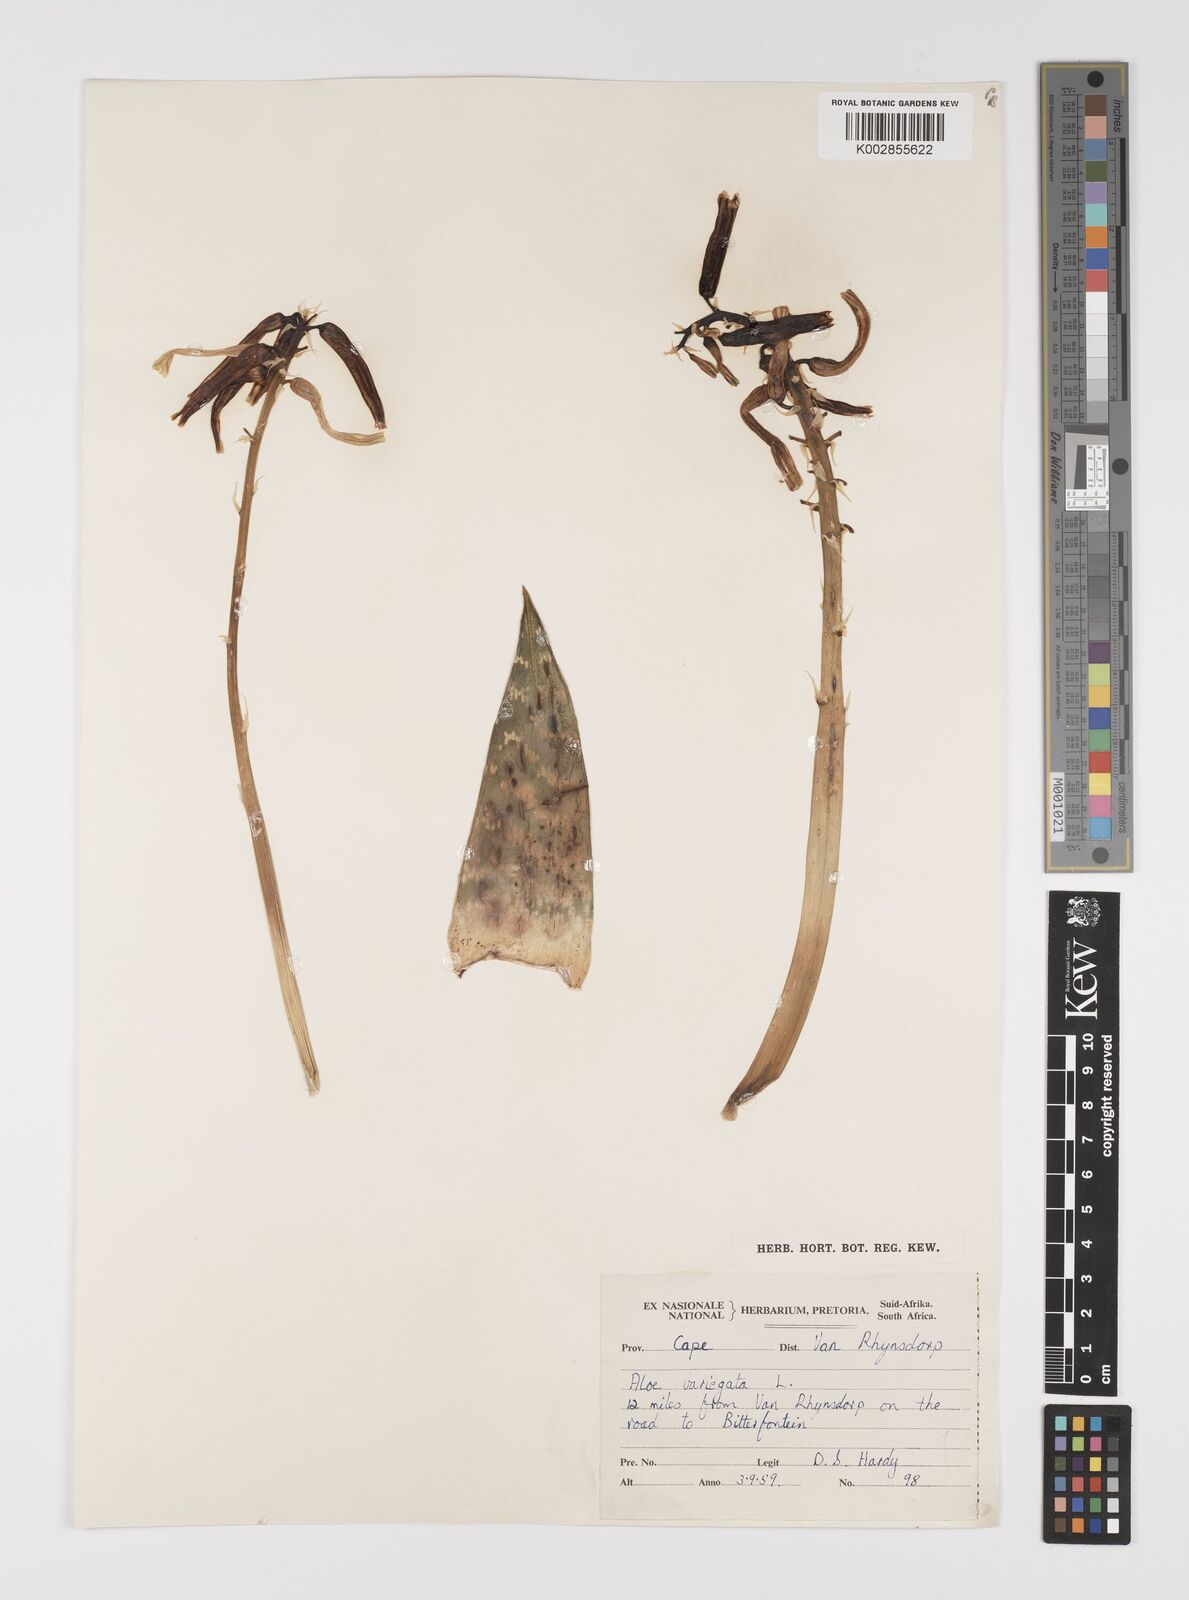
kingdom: Plantae
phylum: Tracheophyta
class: Liliopsida
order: Asparagales
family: Asphodelaceae
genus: Gonialoe
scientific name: Gonialoe variegata
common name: Aloe variegata
